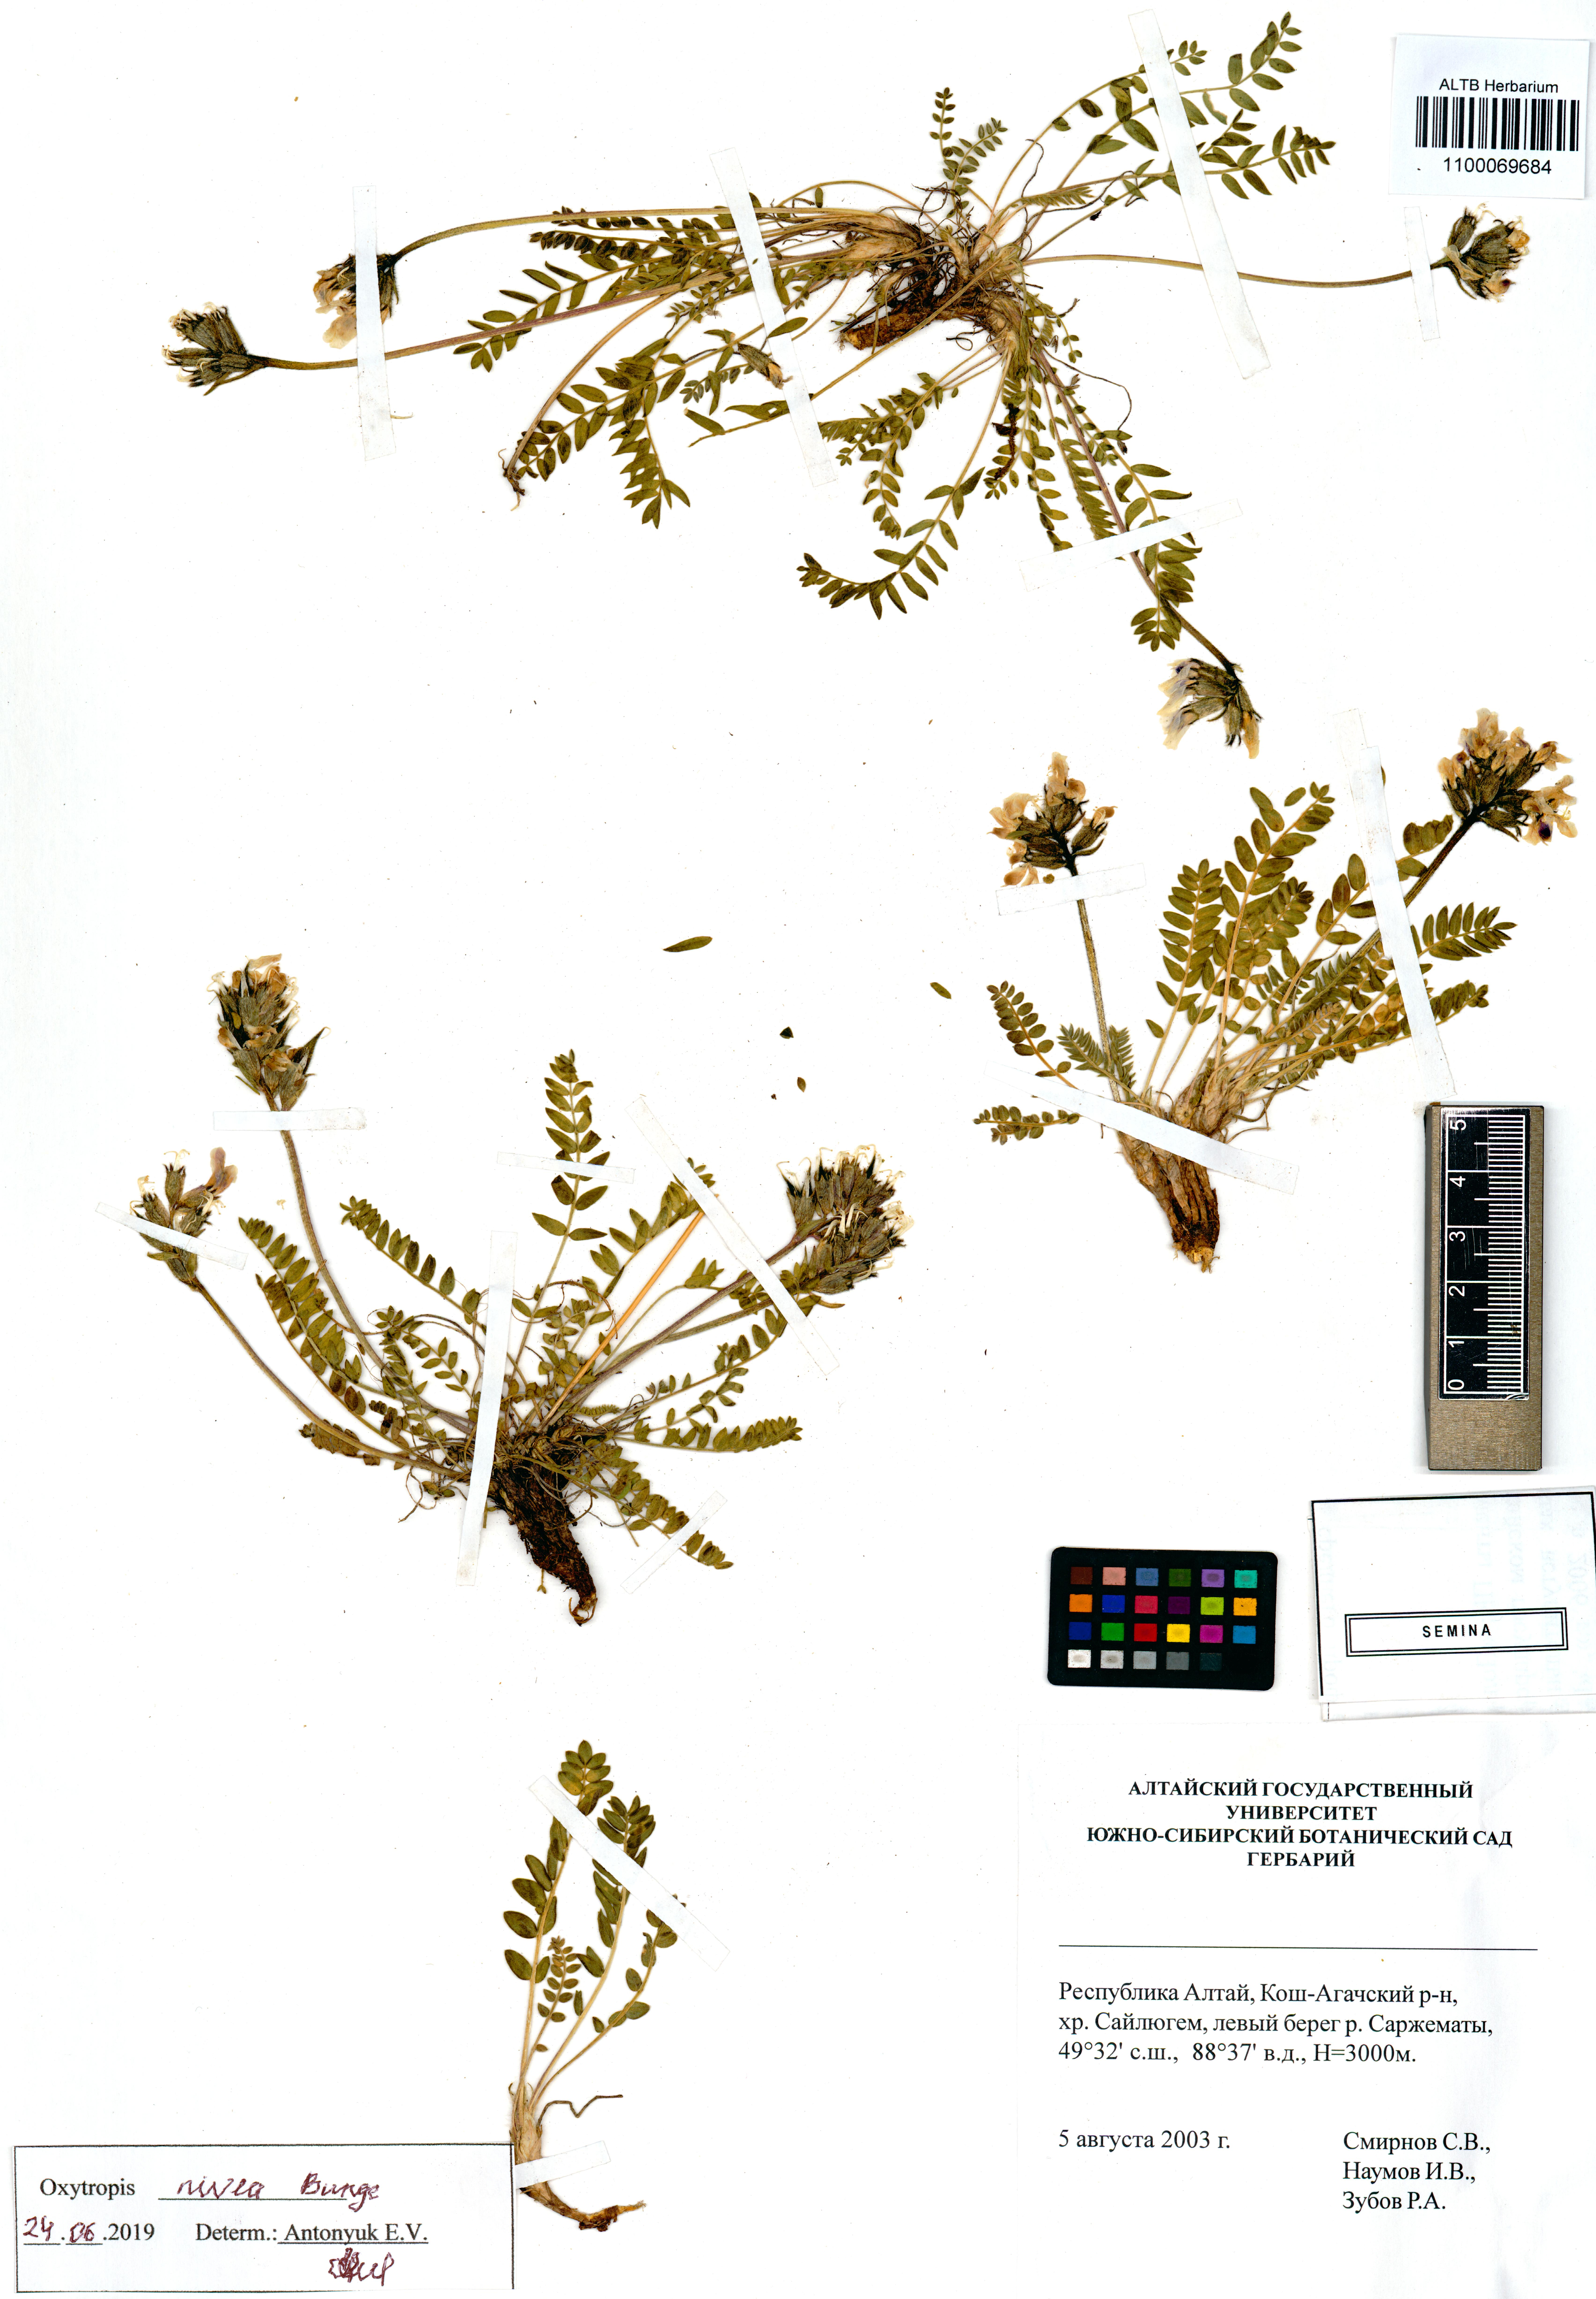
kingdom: Plantae
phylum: Tracheophyta
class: Magnoliopsida
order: Fabales
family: Fabaceae
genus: Oxytropis
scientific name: Oxytropis nivea
